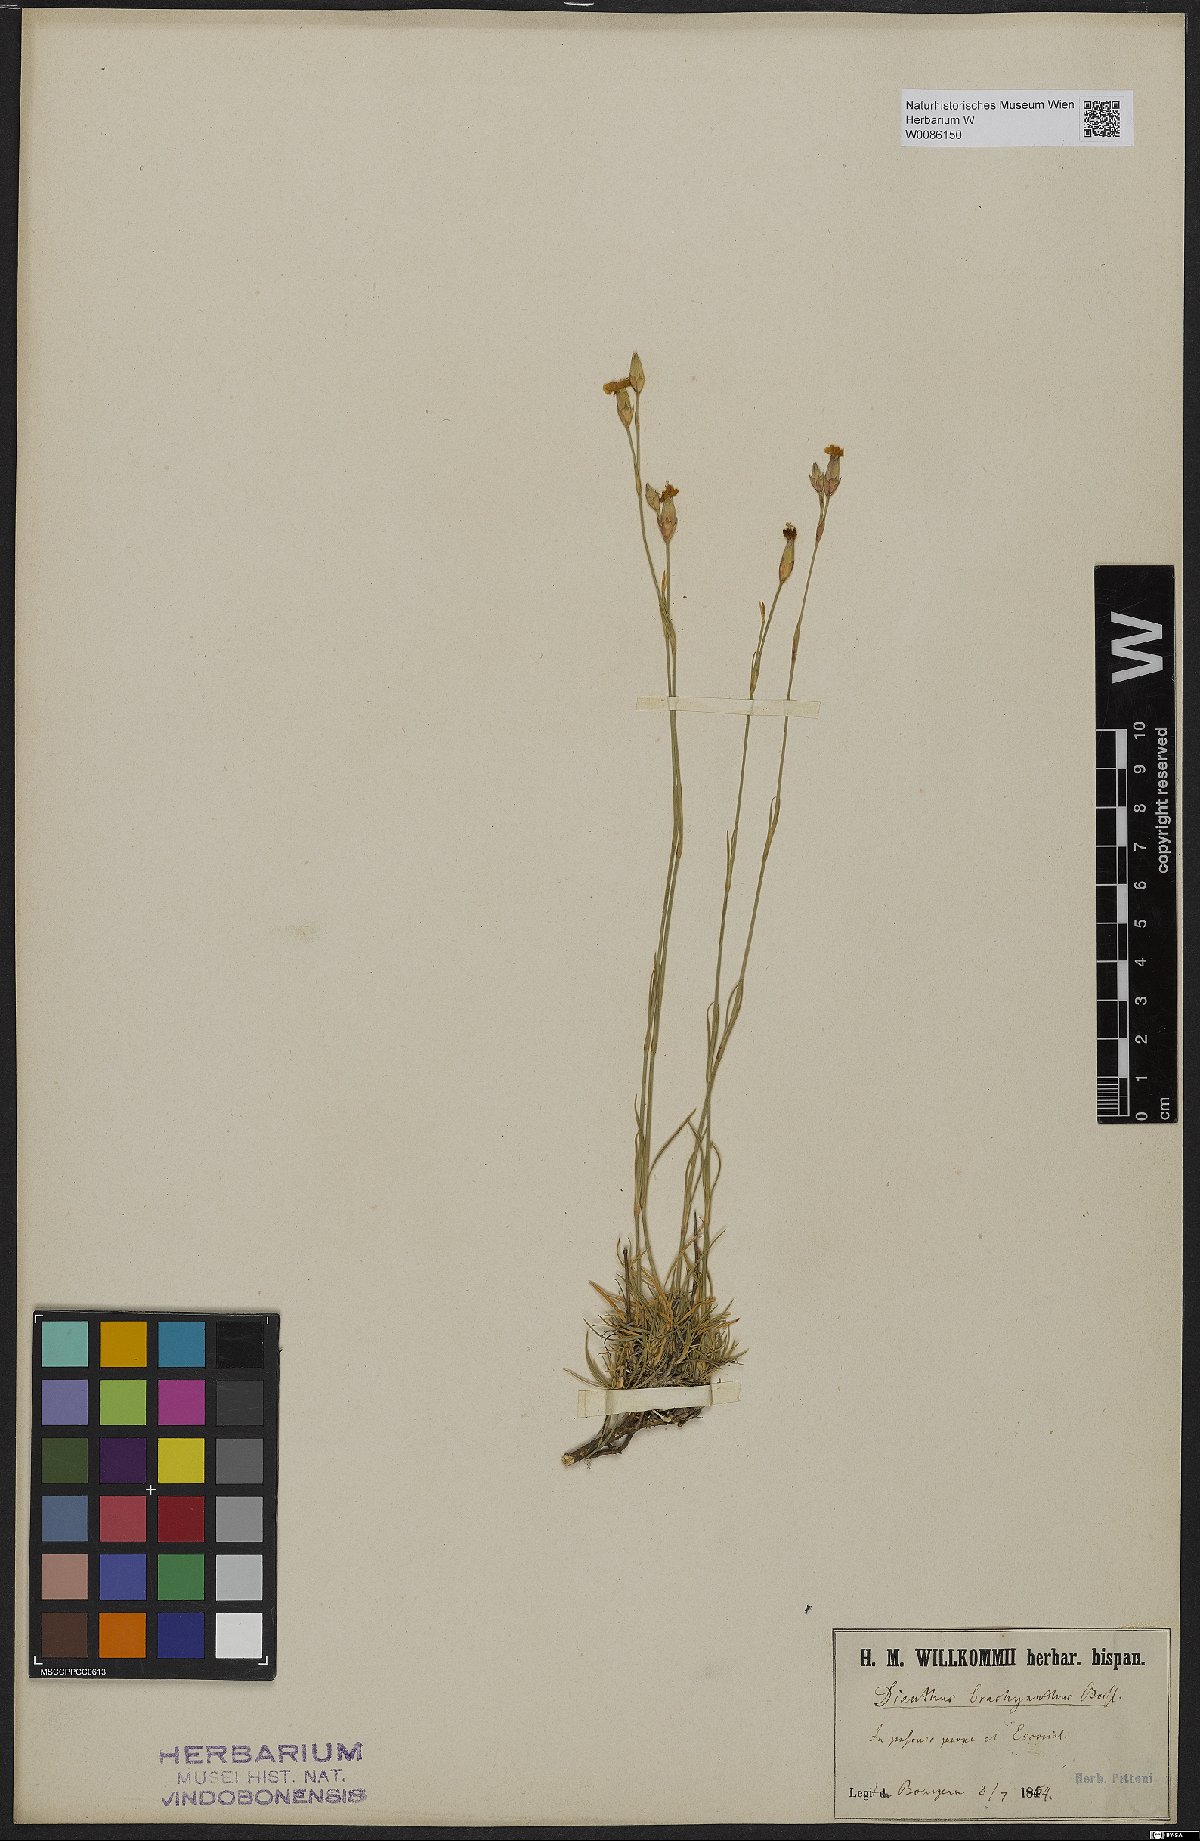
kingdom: Plantae
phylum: Tracheophyta
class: Magnoliopsida
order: Caryophyllales
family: Caryophyllaceae
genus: Dianthus
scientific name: Dianthus pungens
